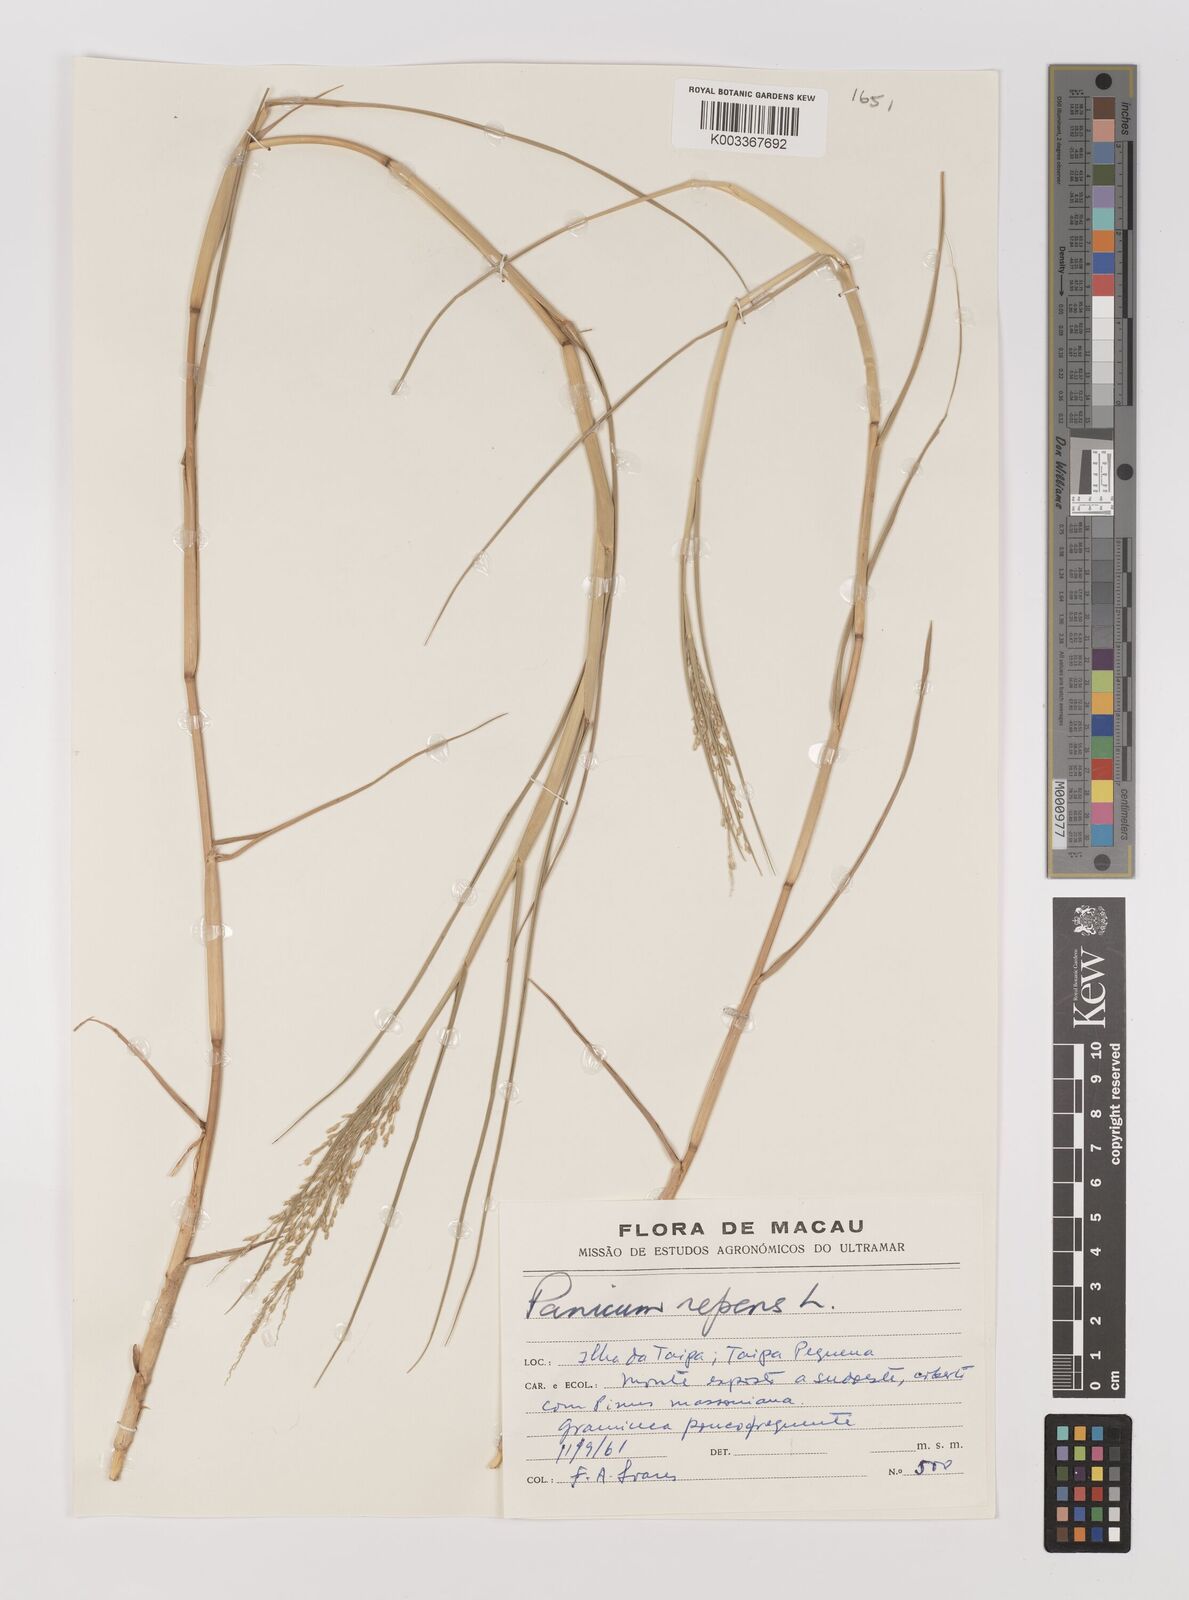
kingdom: Plantae
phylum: Tracheophyta
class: Liliopsida
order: Poales
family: Poaceae
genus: Panicum
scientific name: Panicum repens
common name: Torpedo grass
